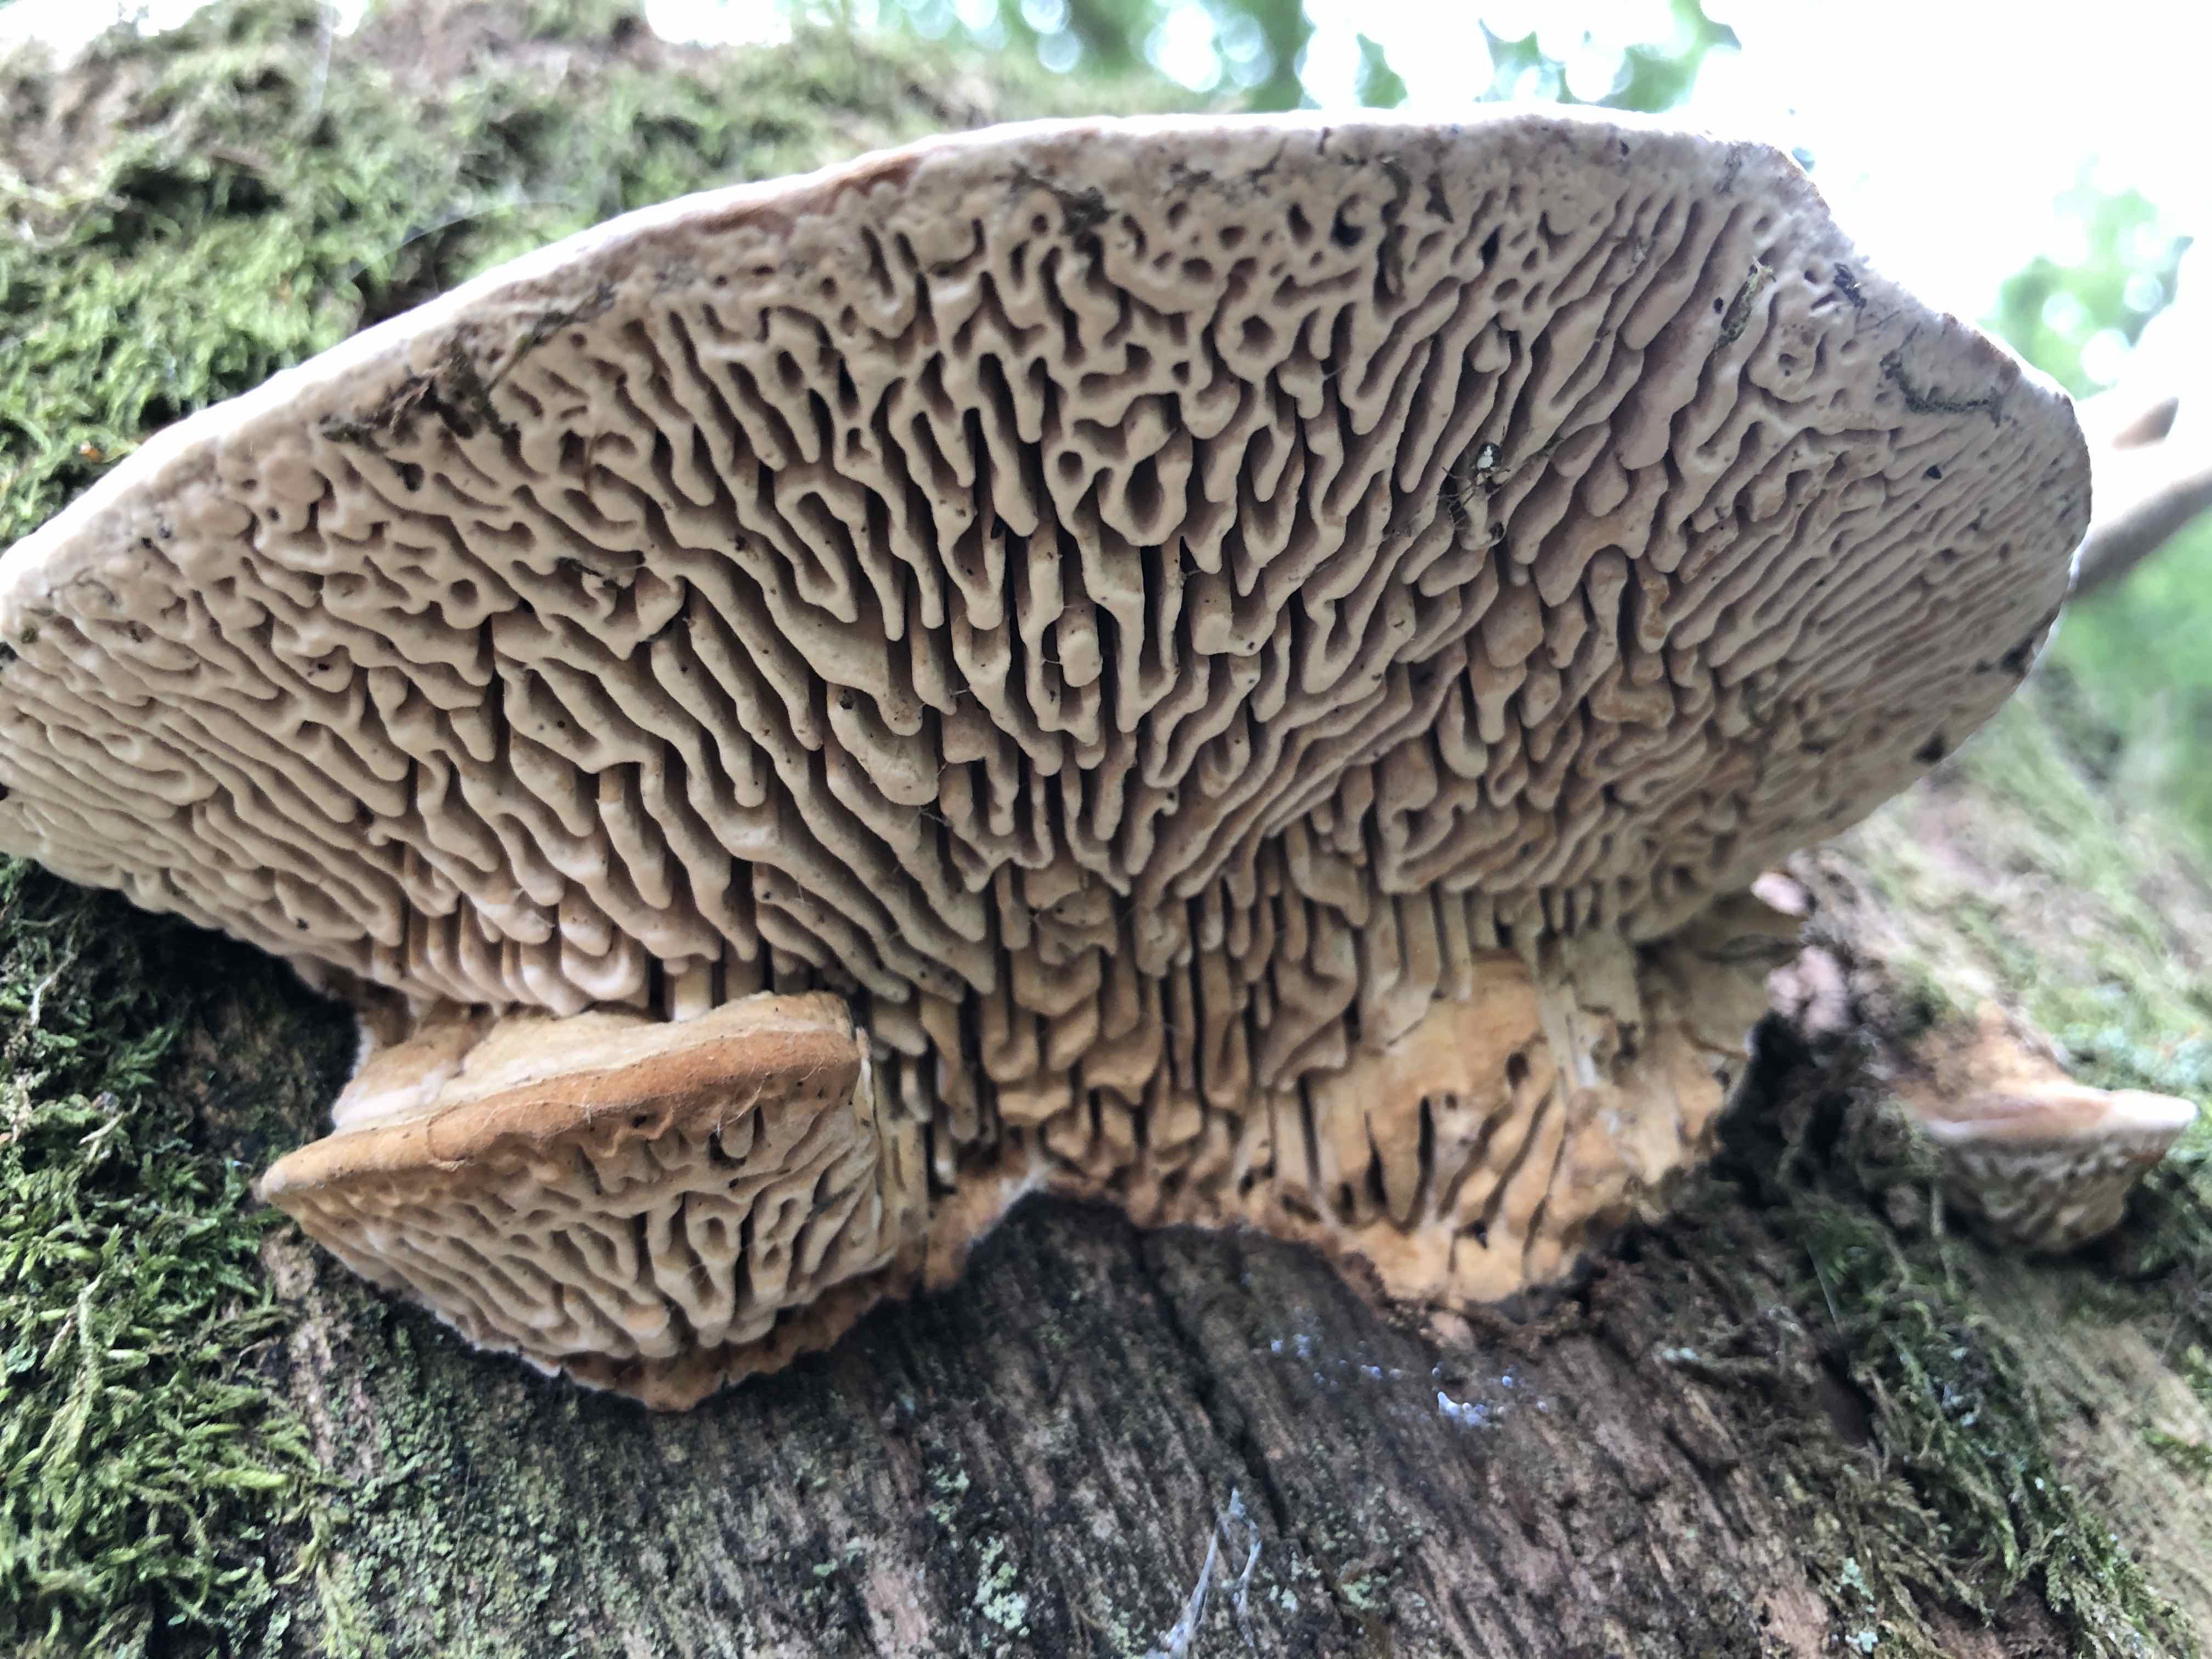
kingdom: Fungi
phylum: Basidiomycota
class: Agaricomycetes
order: Polyporales
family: Fomitopsidaceae
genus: Daedalea
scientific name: Daedalea quercina
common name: ege-labyrintsvamp
